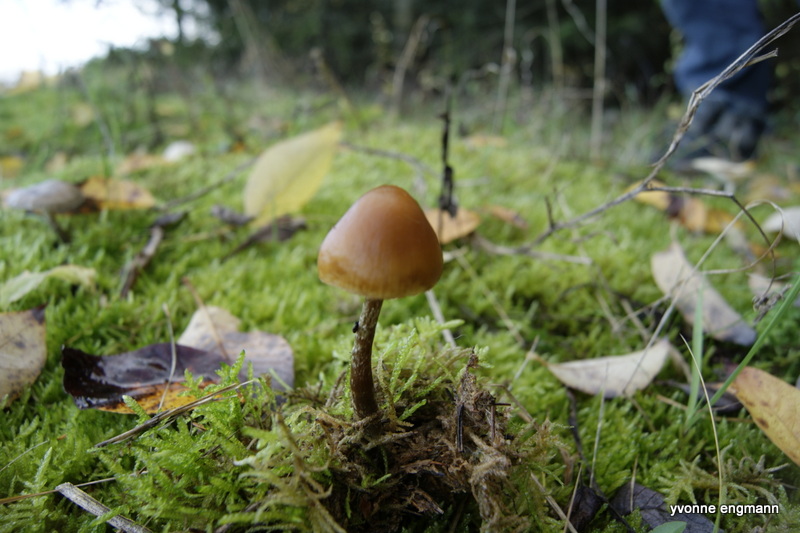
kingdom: Fungi
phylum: Basidiomycota
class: Agaricomycetes
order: Agaricales
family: Hymenogastraceae
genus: Galerina
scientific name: Galerina marginata
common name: randbæltet hjelmhat
